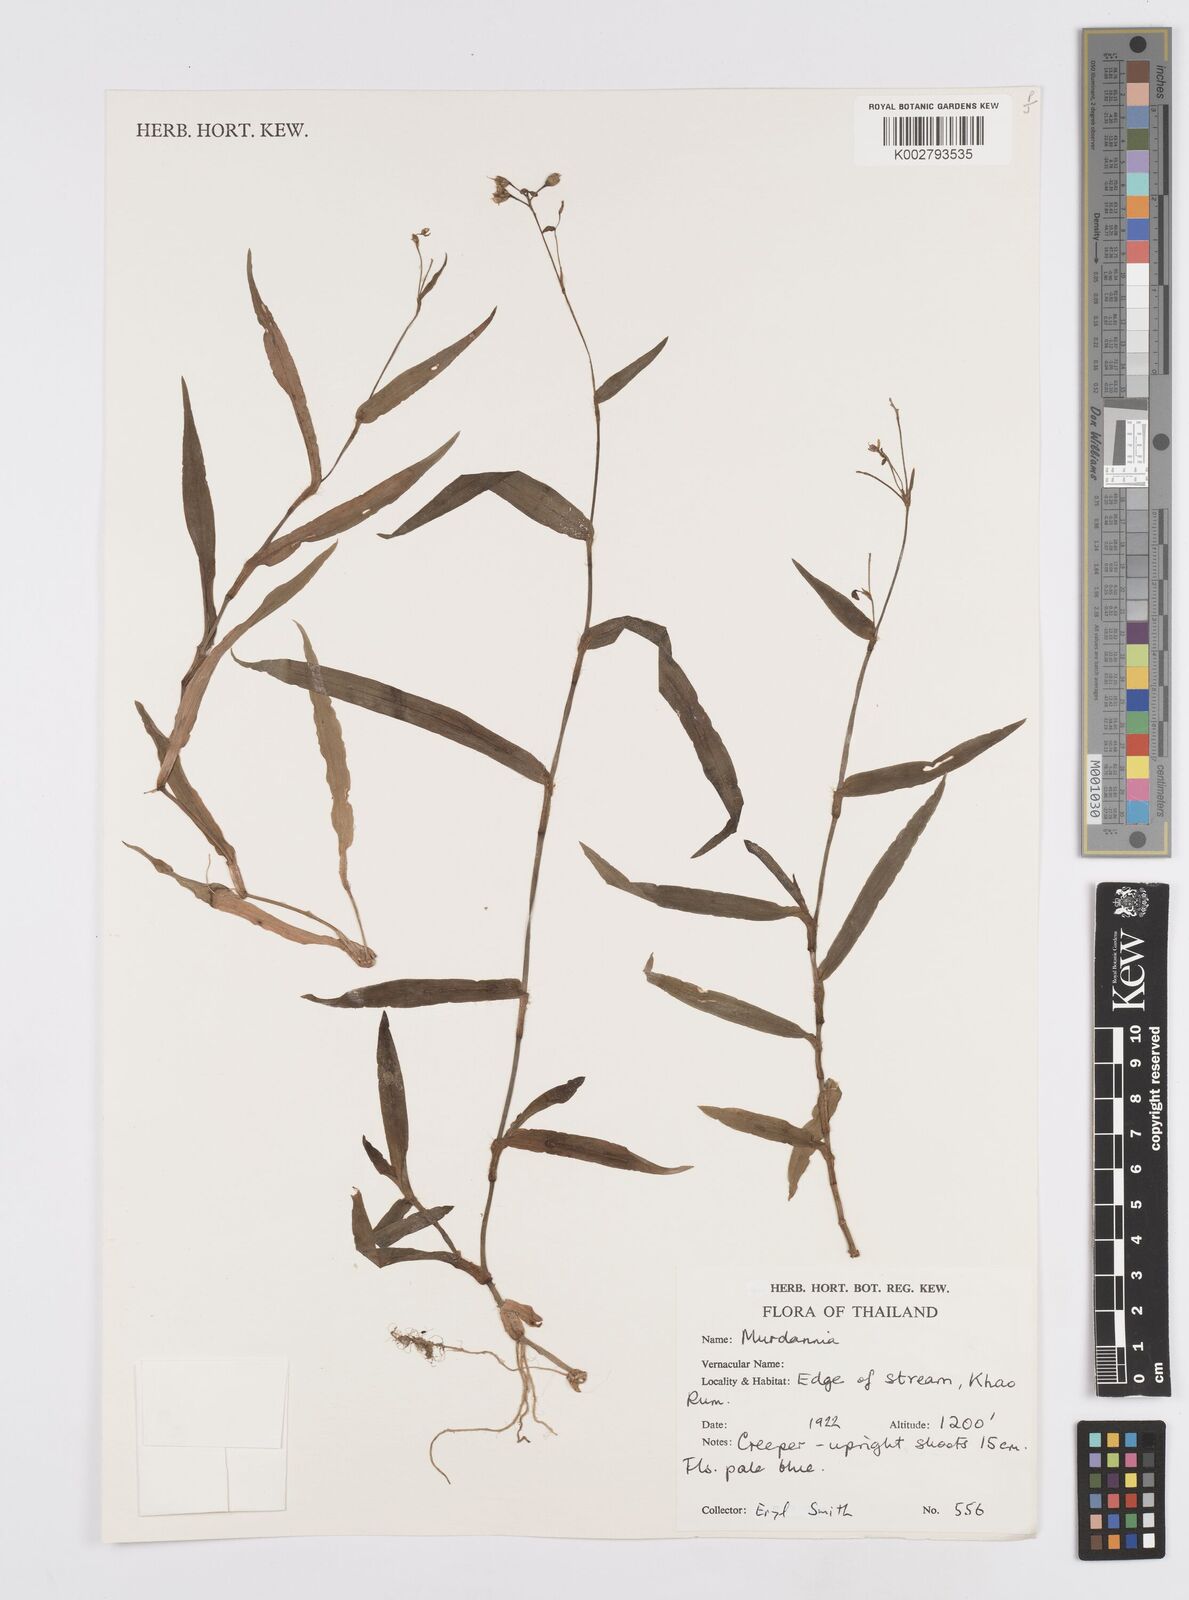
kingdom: Plantae
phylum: Tracheophyta
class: Liliopsida
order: Commelinales
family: Commelinaceae
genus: Murdannia
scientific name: Murdannia
